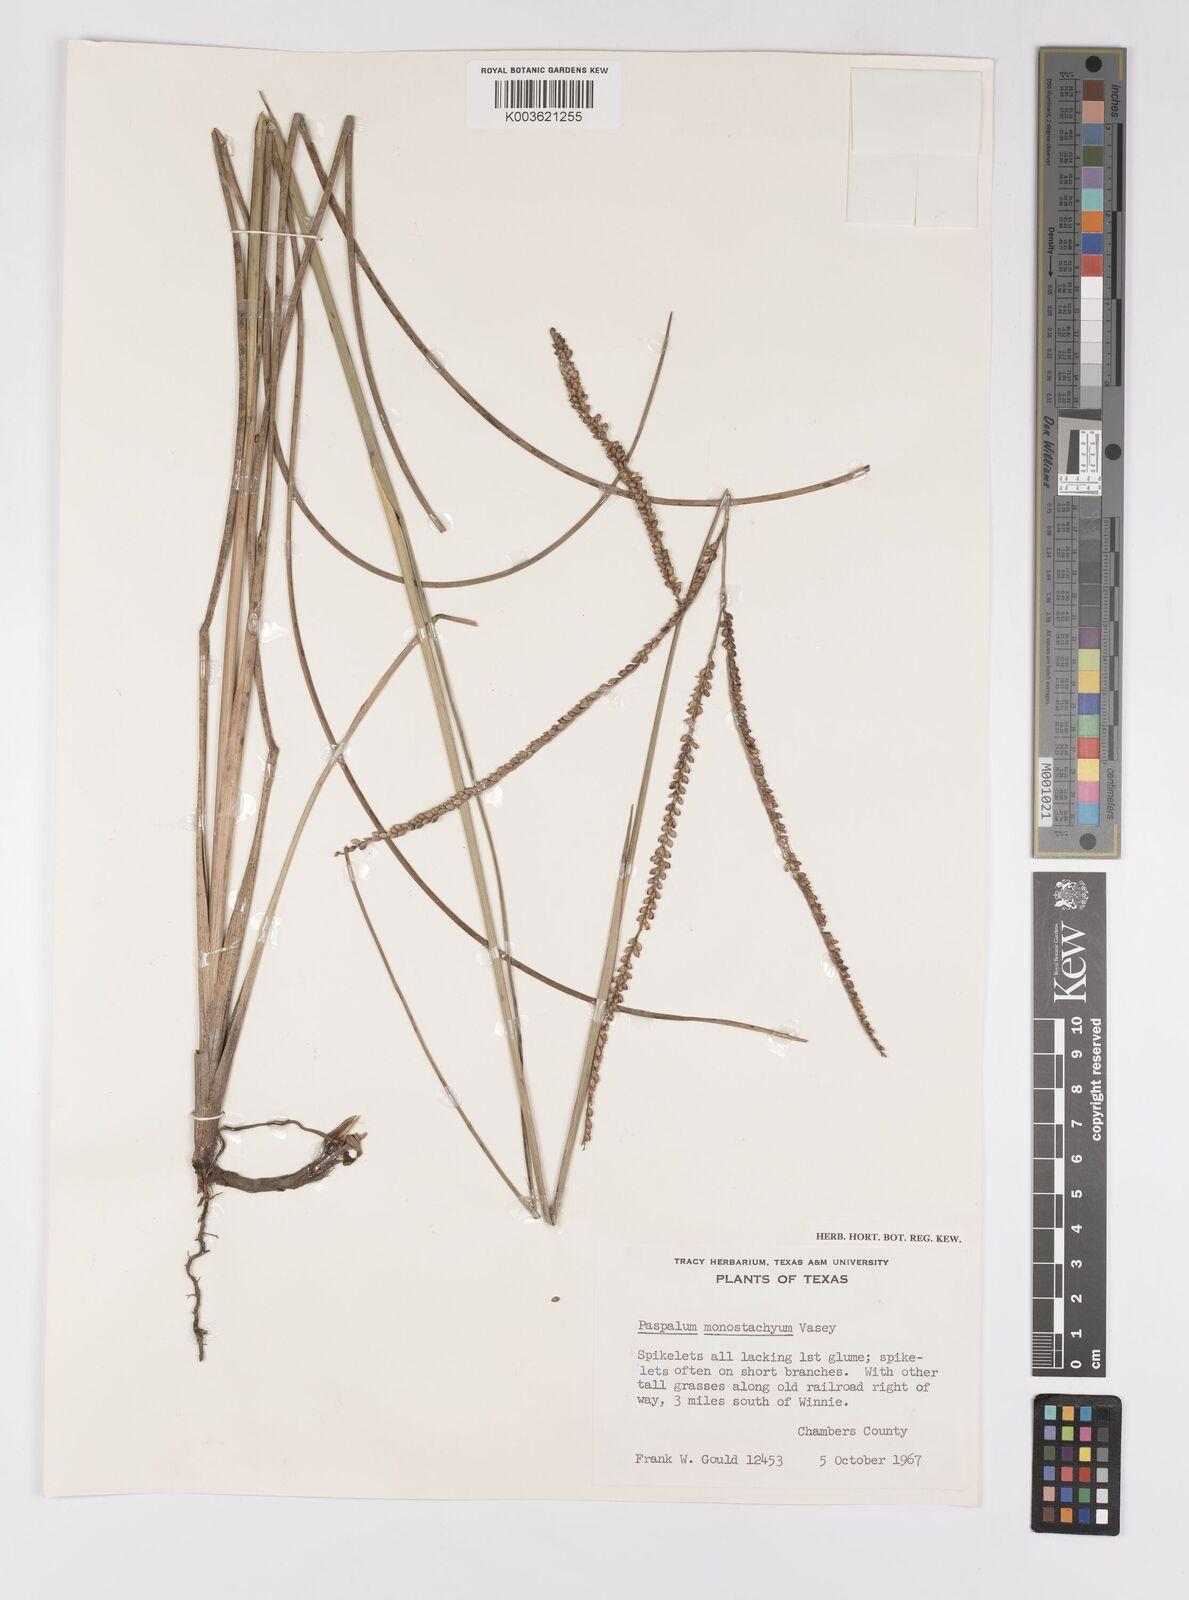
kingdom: Plantae
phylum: Tracheophyta
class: Liliopsida
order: Poales
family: Poaceae
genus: Paspalum
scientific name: Paspalum monostachyum
